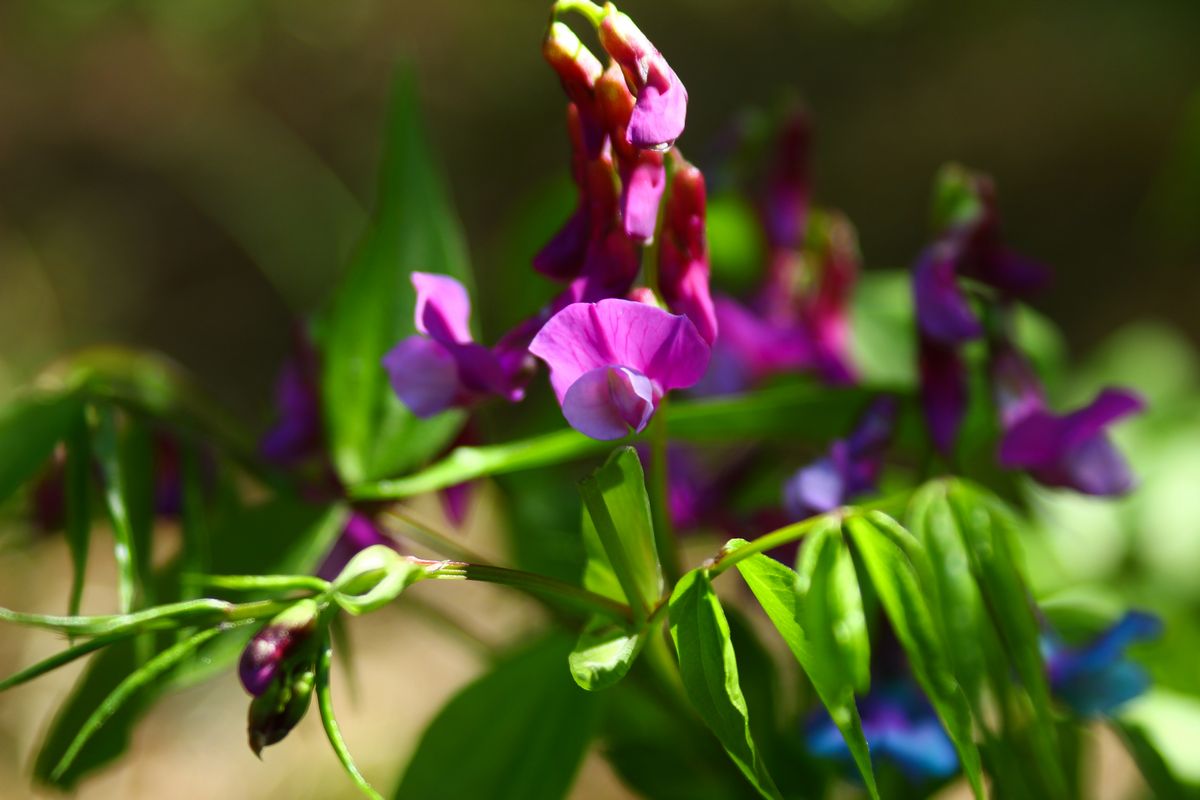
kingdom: Plantae
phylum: Tracheophyta
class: Magnoliopsida
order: Fabales
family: Fabaceae
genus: Lathyrus
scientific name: Lathyrus vernus
